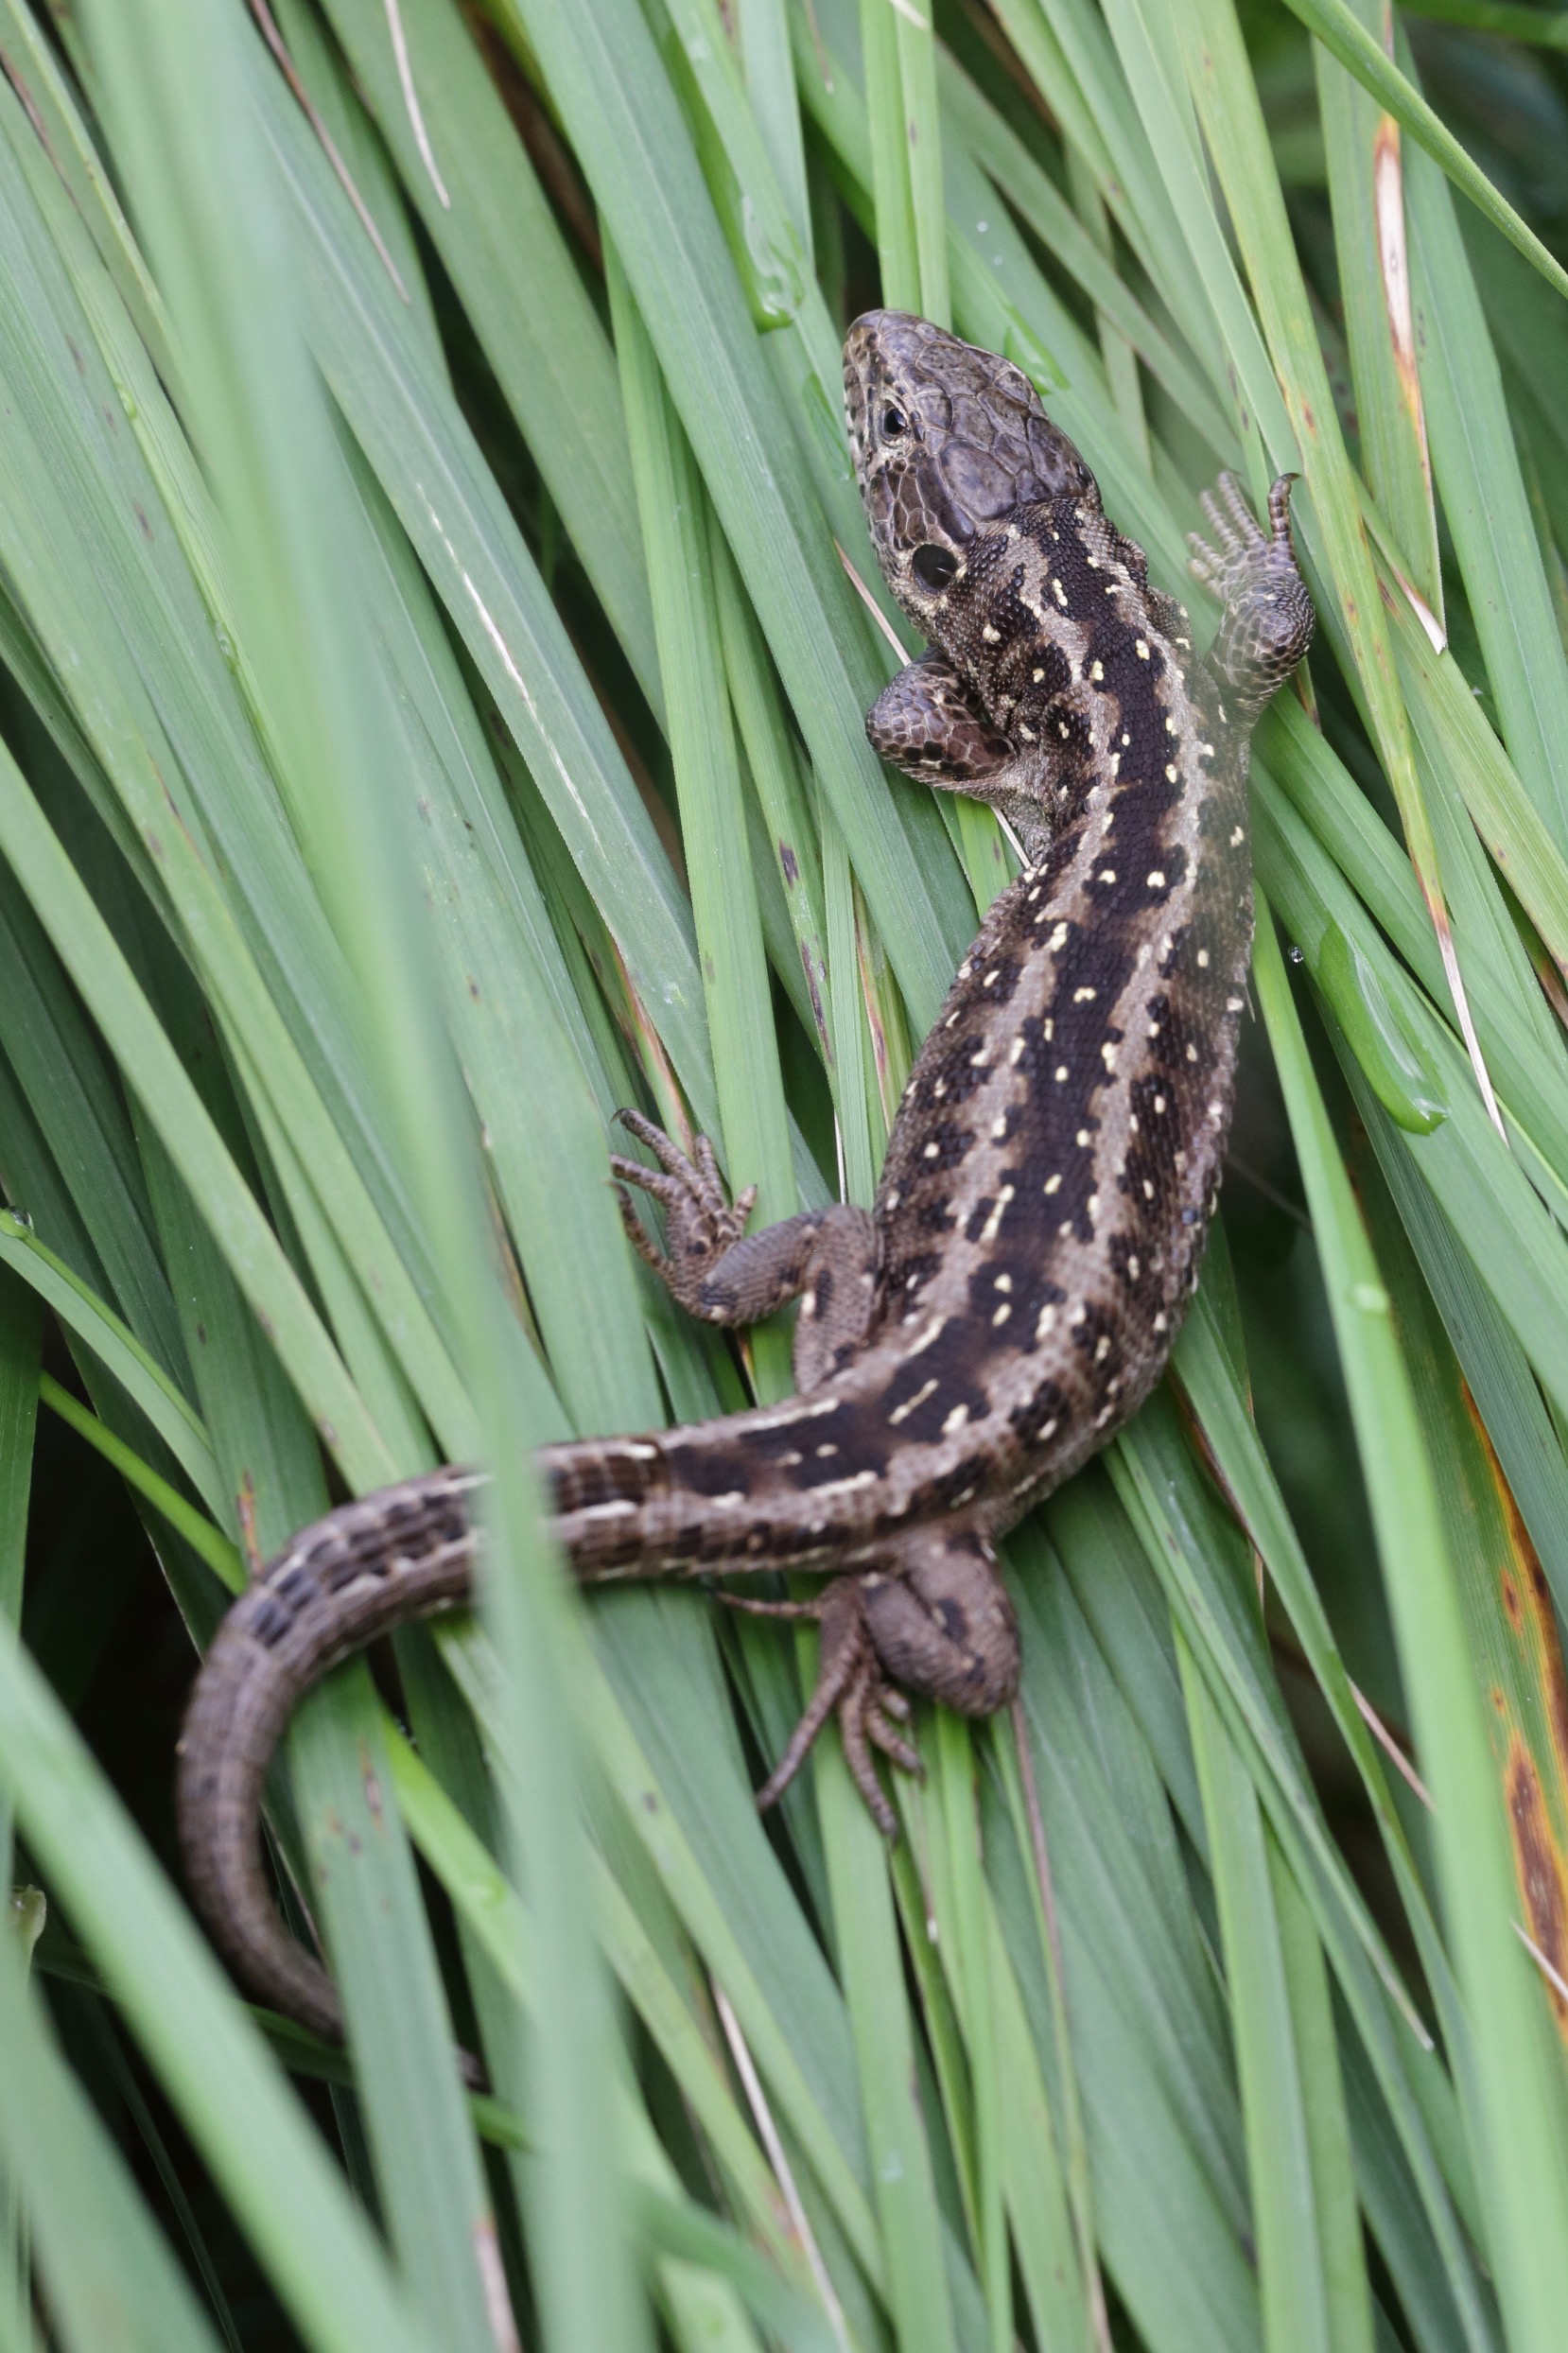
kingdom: Animalia
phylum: Chordata
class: Squamata
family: Lacertidae
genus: Lacerta
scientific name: Lacerta agilis
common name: Markfirben
